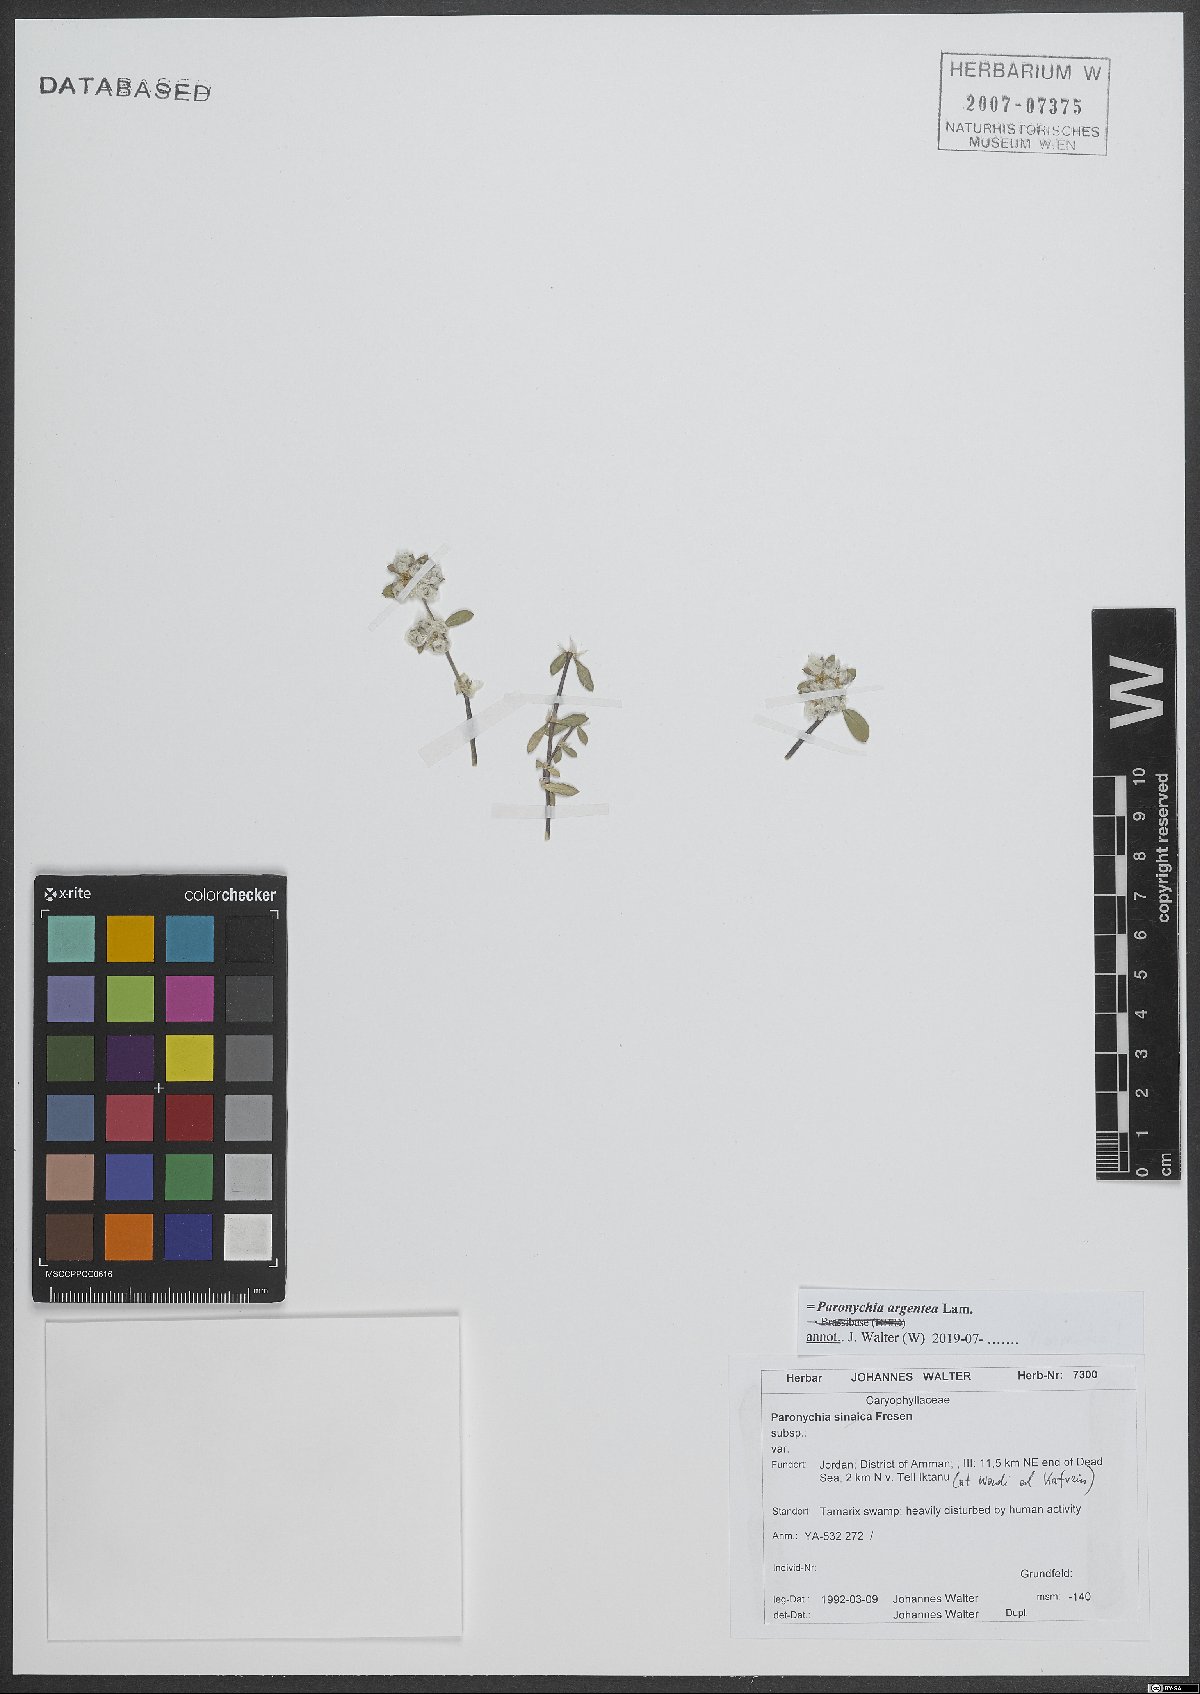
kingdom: Plantae
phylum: Tracheophyta
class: Magnoliopsida
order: Caryophyllales
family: Caryophyllaceae
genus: Paronychia
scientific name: Paronychia argentea
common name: Silver nailroot
